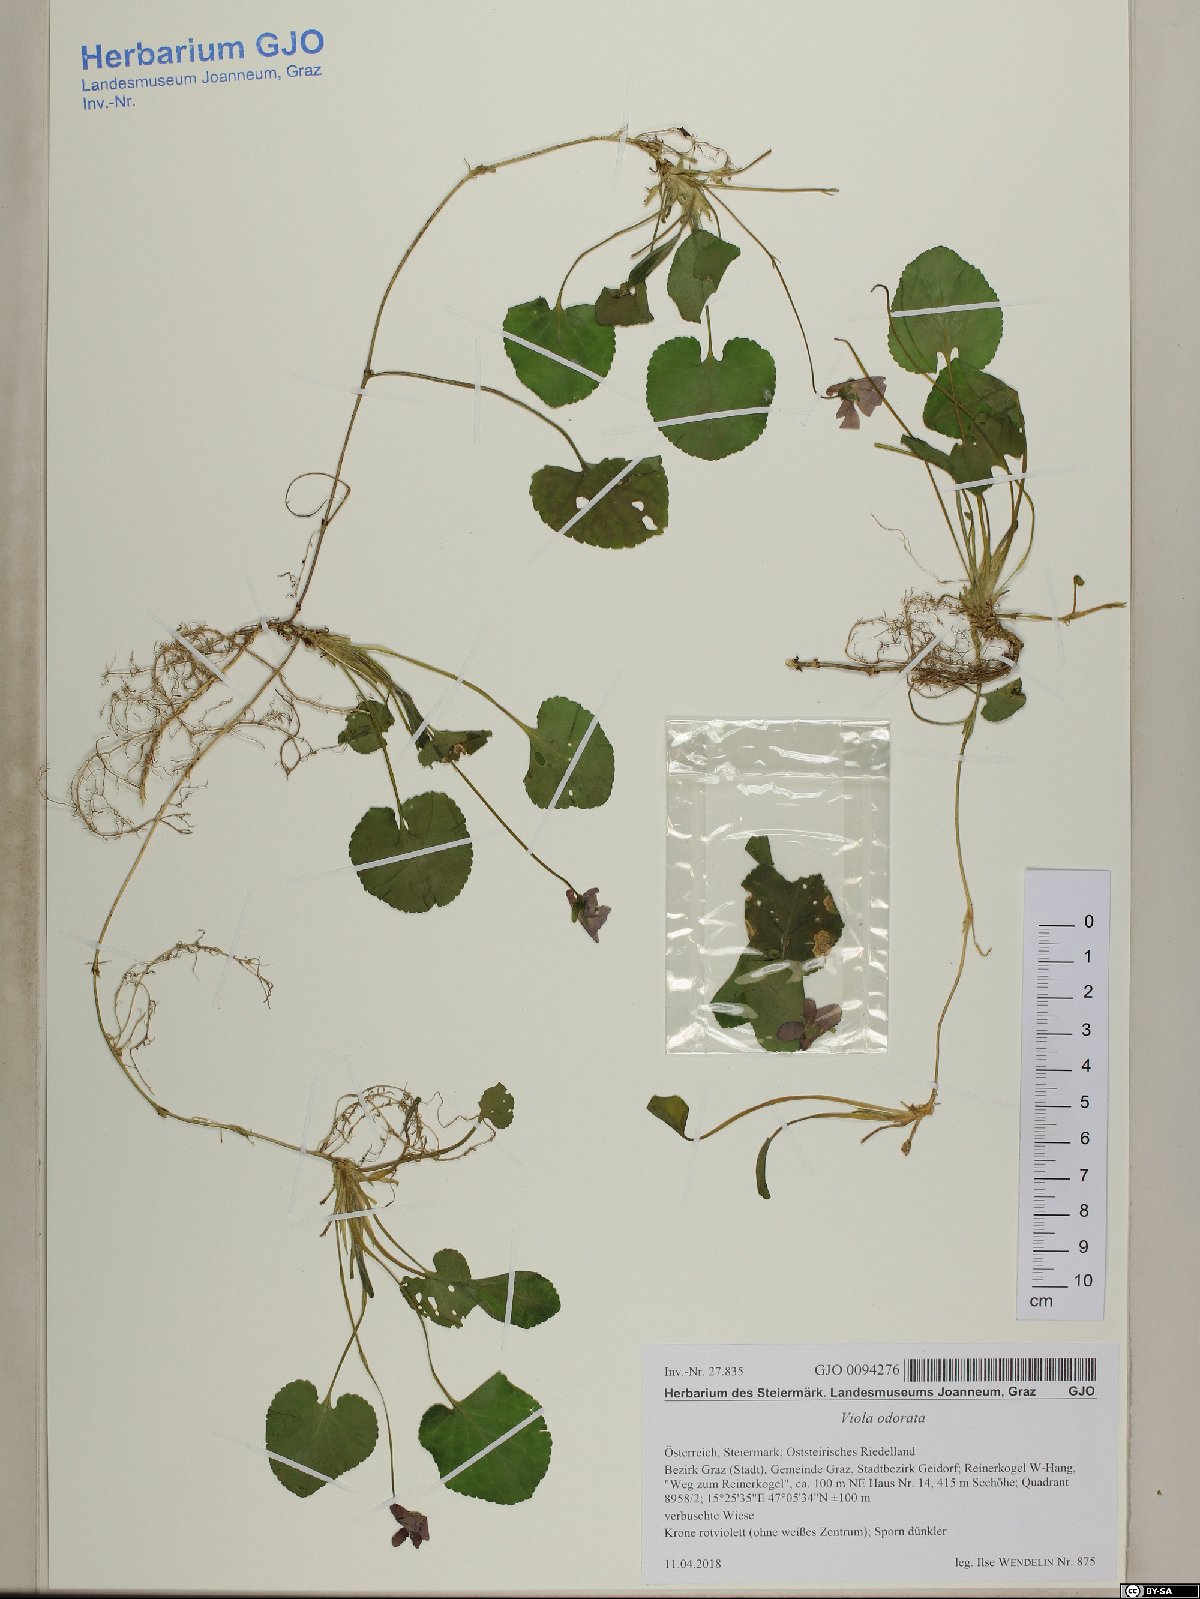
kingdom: Plantae
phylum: Tracheophyta
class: Magnoliopsida
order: Malpighiales
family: Violaceae
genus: Viola
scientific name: Viola odorata
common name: Sweet violet
